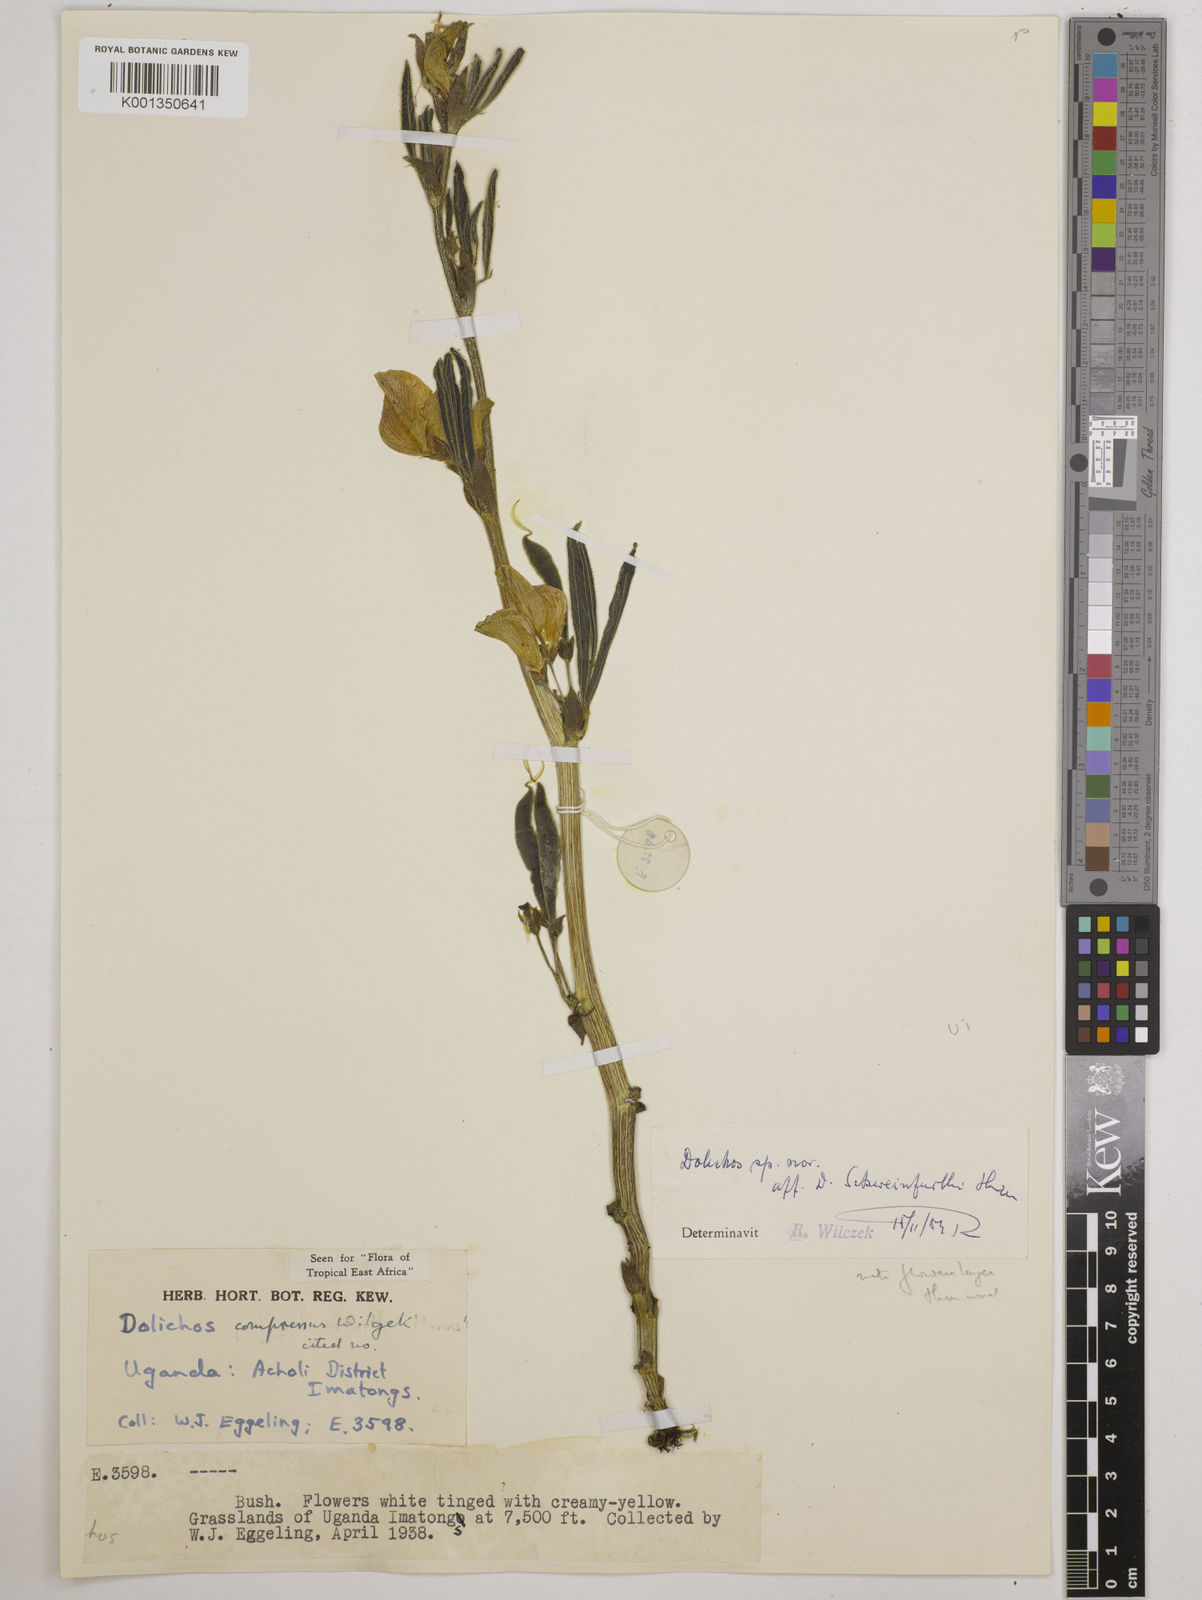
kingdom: Plantae
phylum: Tracheophyta
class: Magnoliopsida
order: Fabales
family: Fabaceae
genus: Dolichos
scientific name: Dolichos compressus
